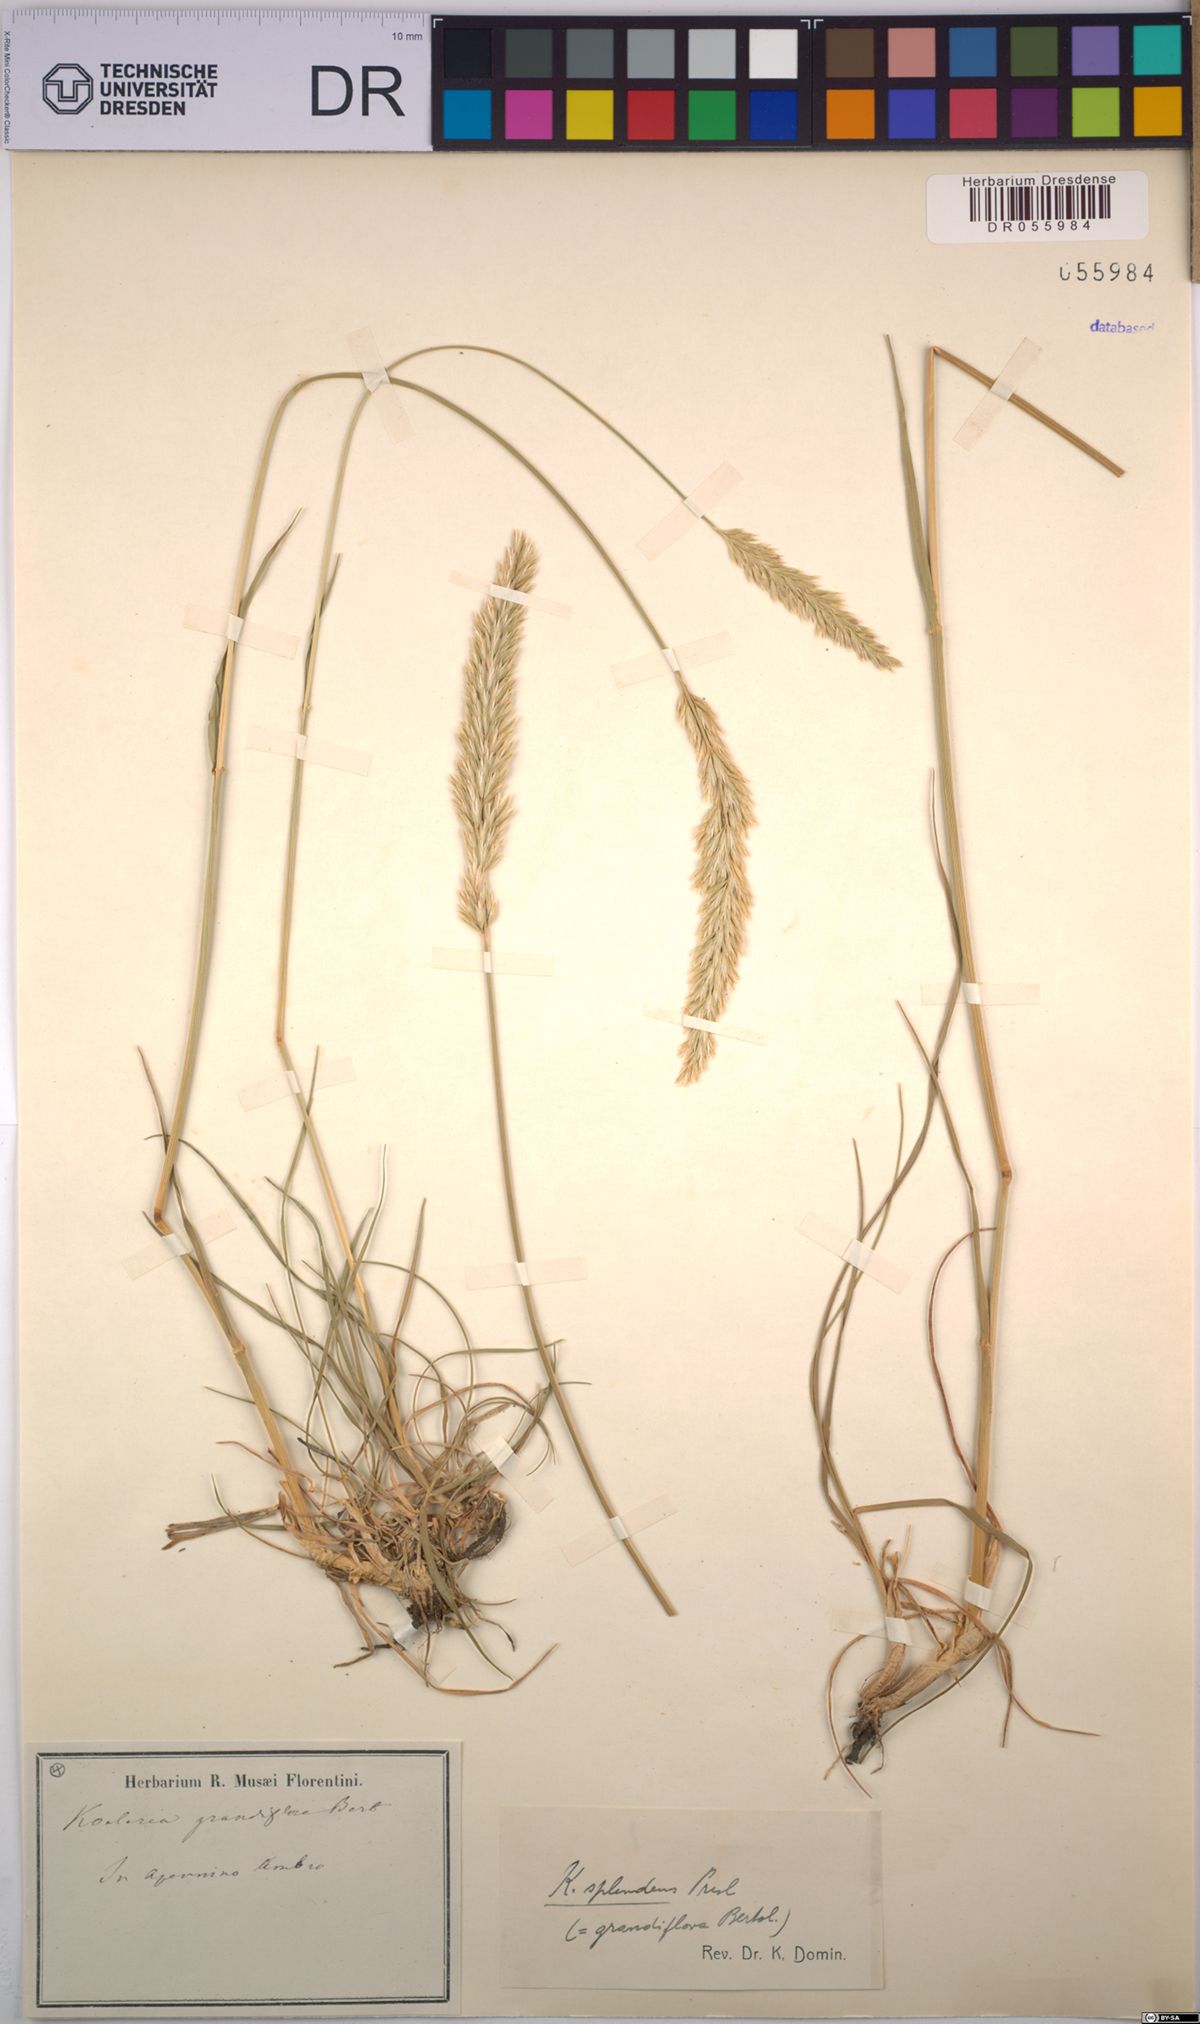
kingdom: Plantae
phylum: Tracheophyta
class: Liliopsida
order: Poales
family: Poaceae
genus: Koeleria
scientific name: Koeleria splendens
